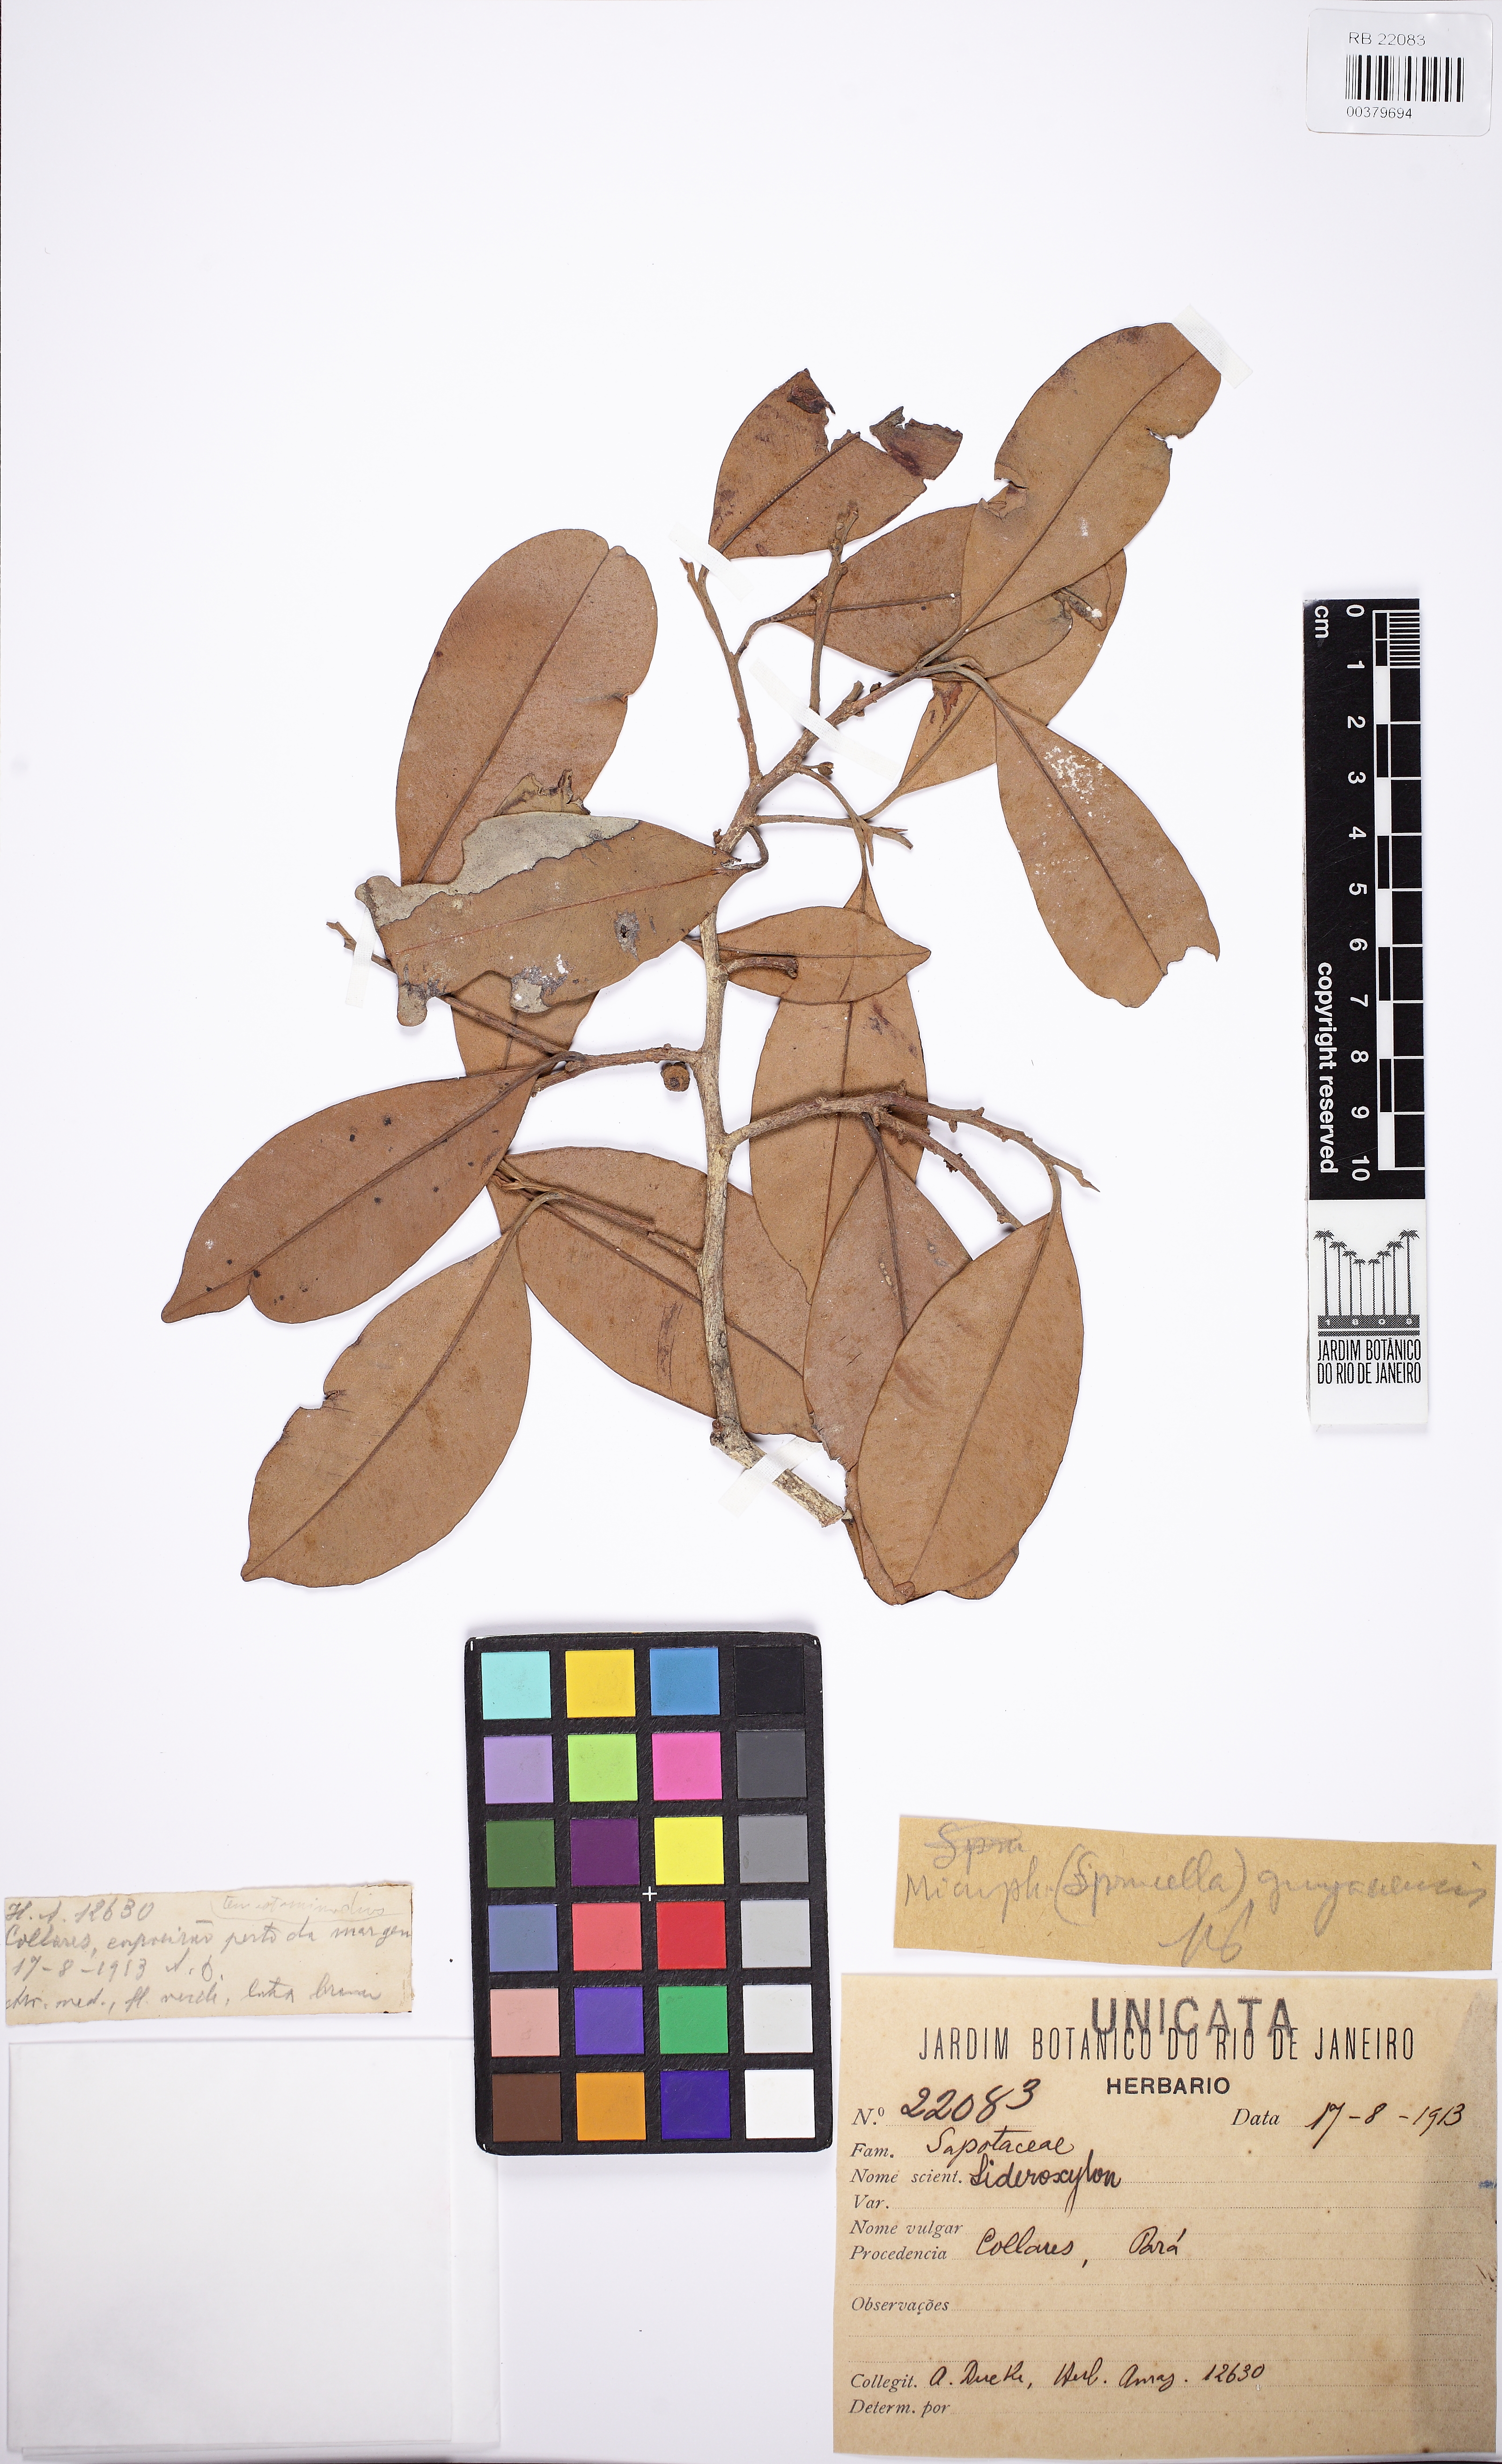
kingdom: Plantae
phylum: Tracheophyta
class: Magnoliopsida
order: Ericales
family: Sapotaceae
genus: Micropholis
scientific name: Micropholis
